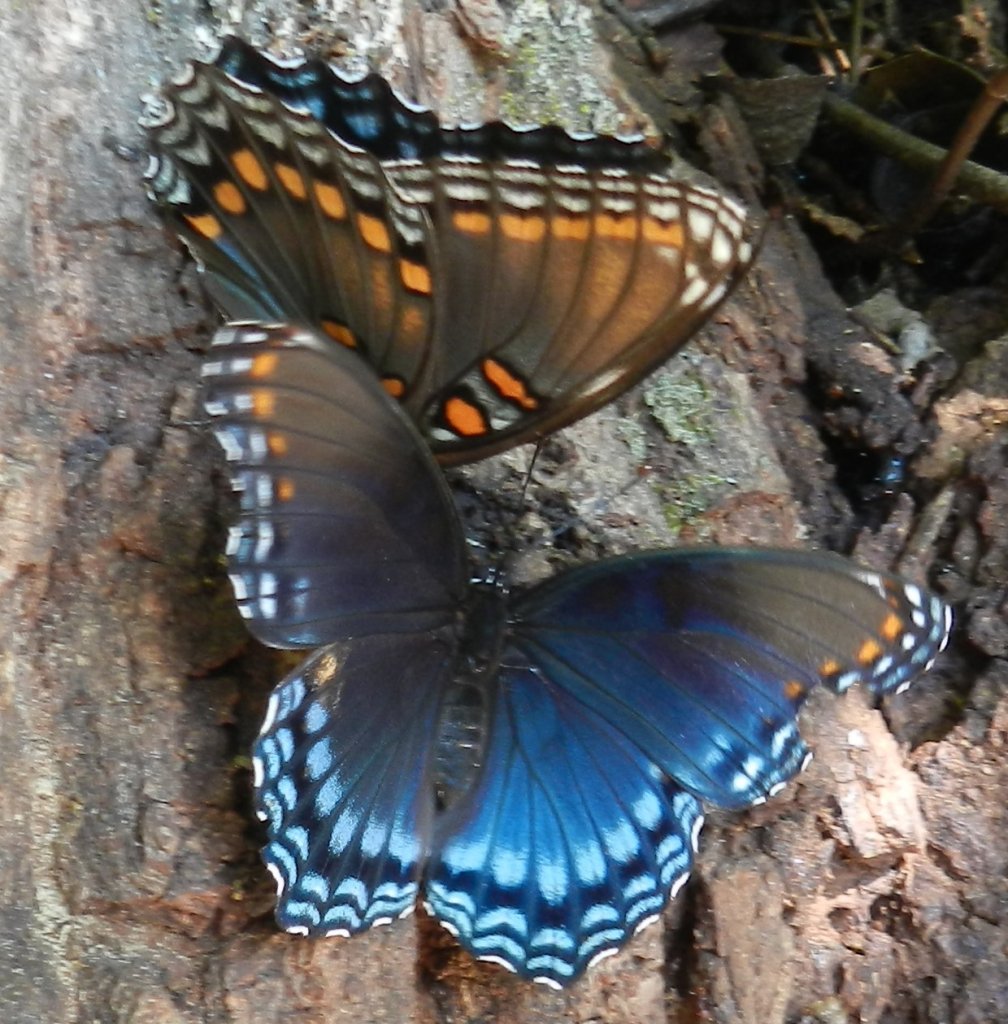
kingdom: Animalia
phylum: Arthropoda
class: Insecta
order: Lepidoptera
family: Nymphalidae
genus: Limenitis
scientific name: Limenitis astyanax
